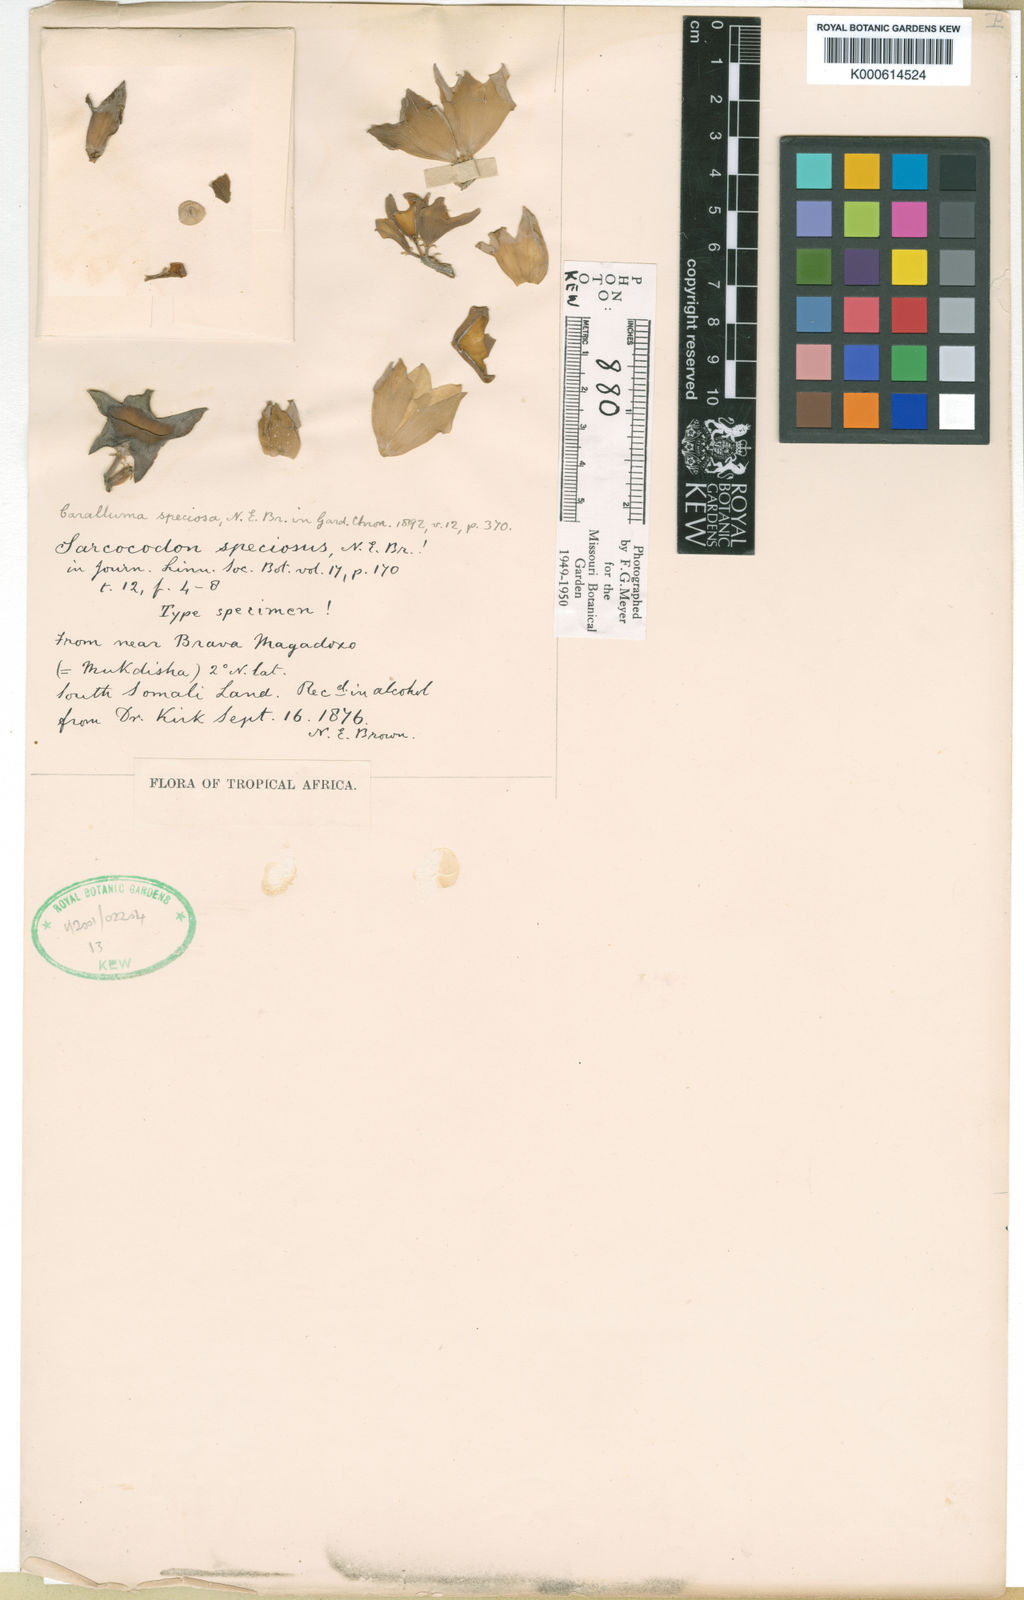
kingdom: Plantae
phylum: Tracheophyta
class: Magnoliopsida
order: Gentianales
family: Apocynaceae
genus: Ceropegia
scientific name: Ceropegia codonoides
